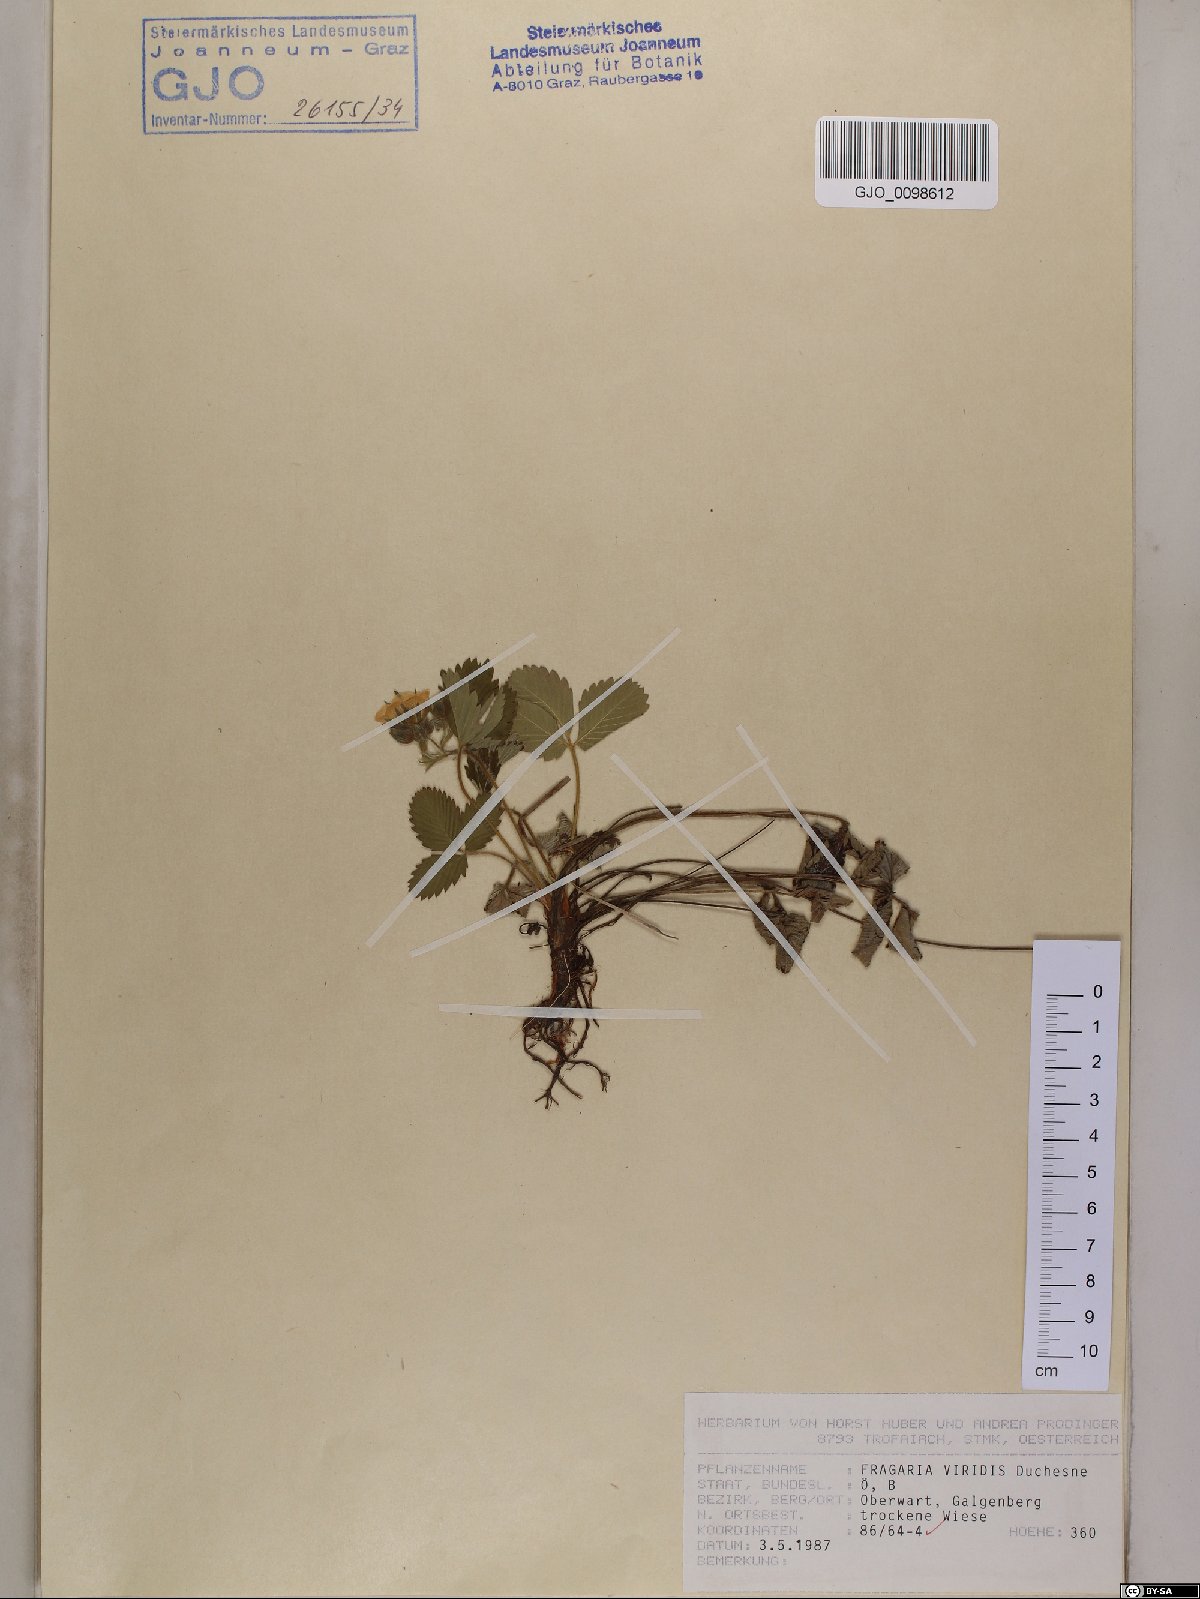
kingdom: Plantae
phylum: Tracheophyta
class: Magnoliopsida
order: Rosales
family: Rosaceae
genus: Fragaria
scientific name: Fragaria viridis
